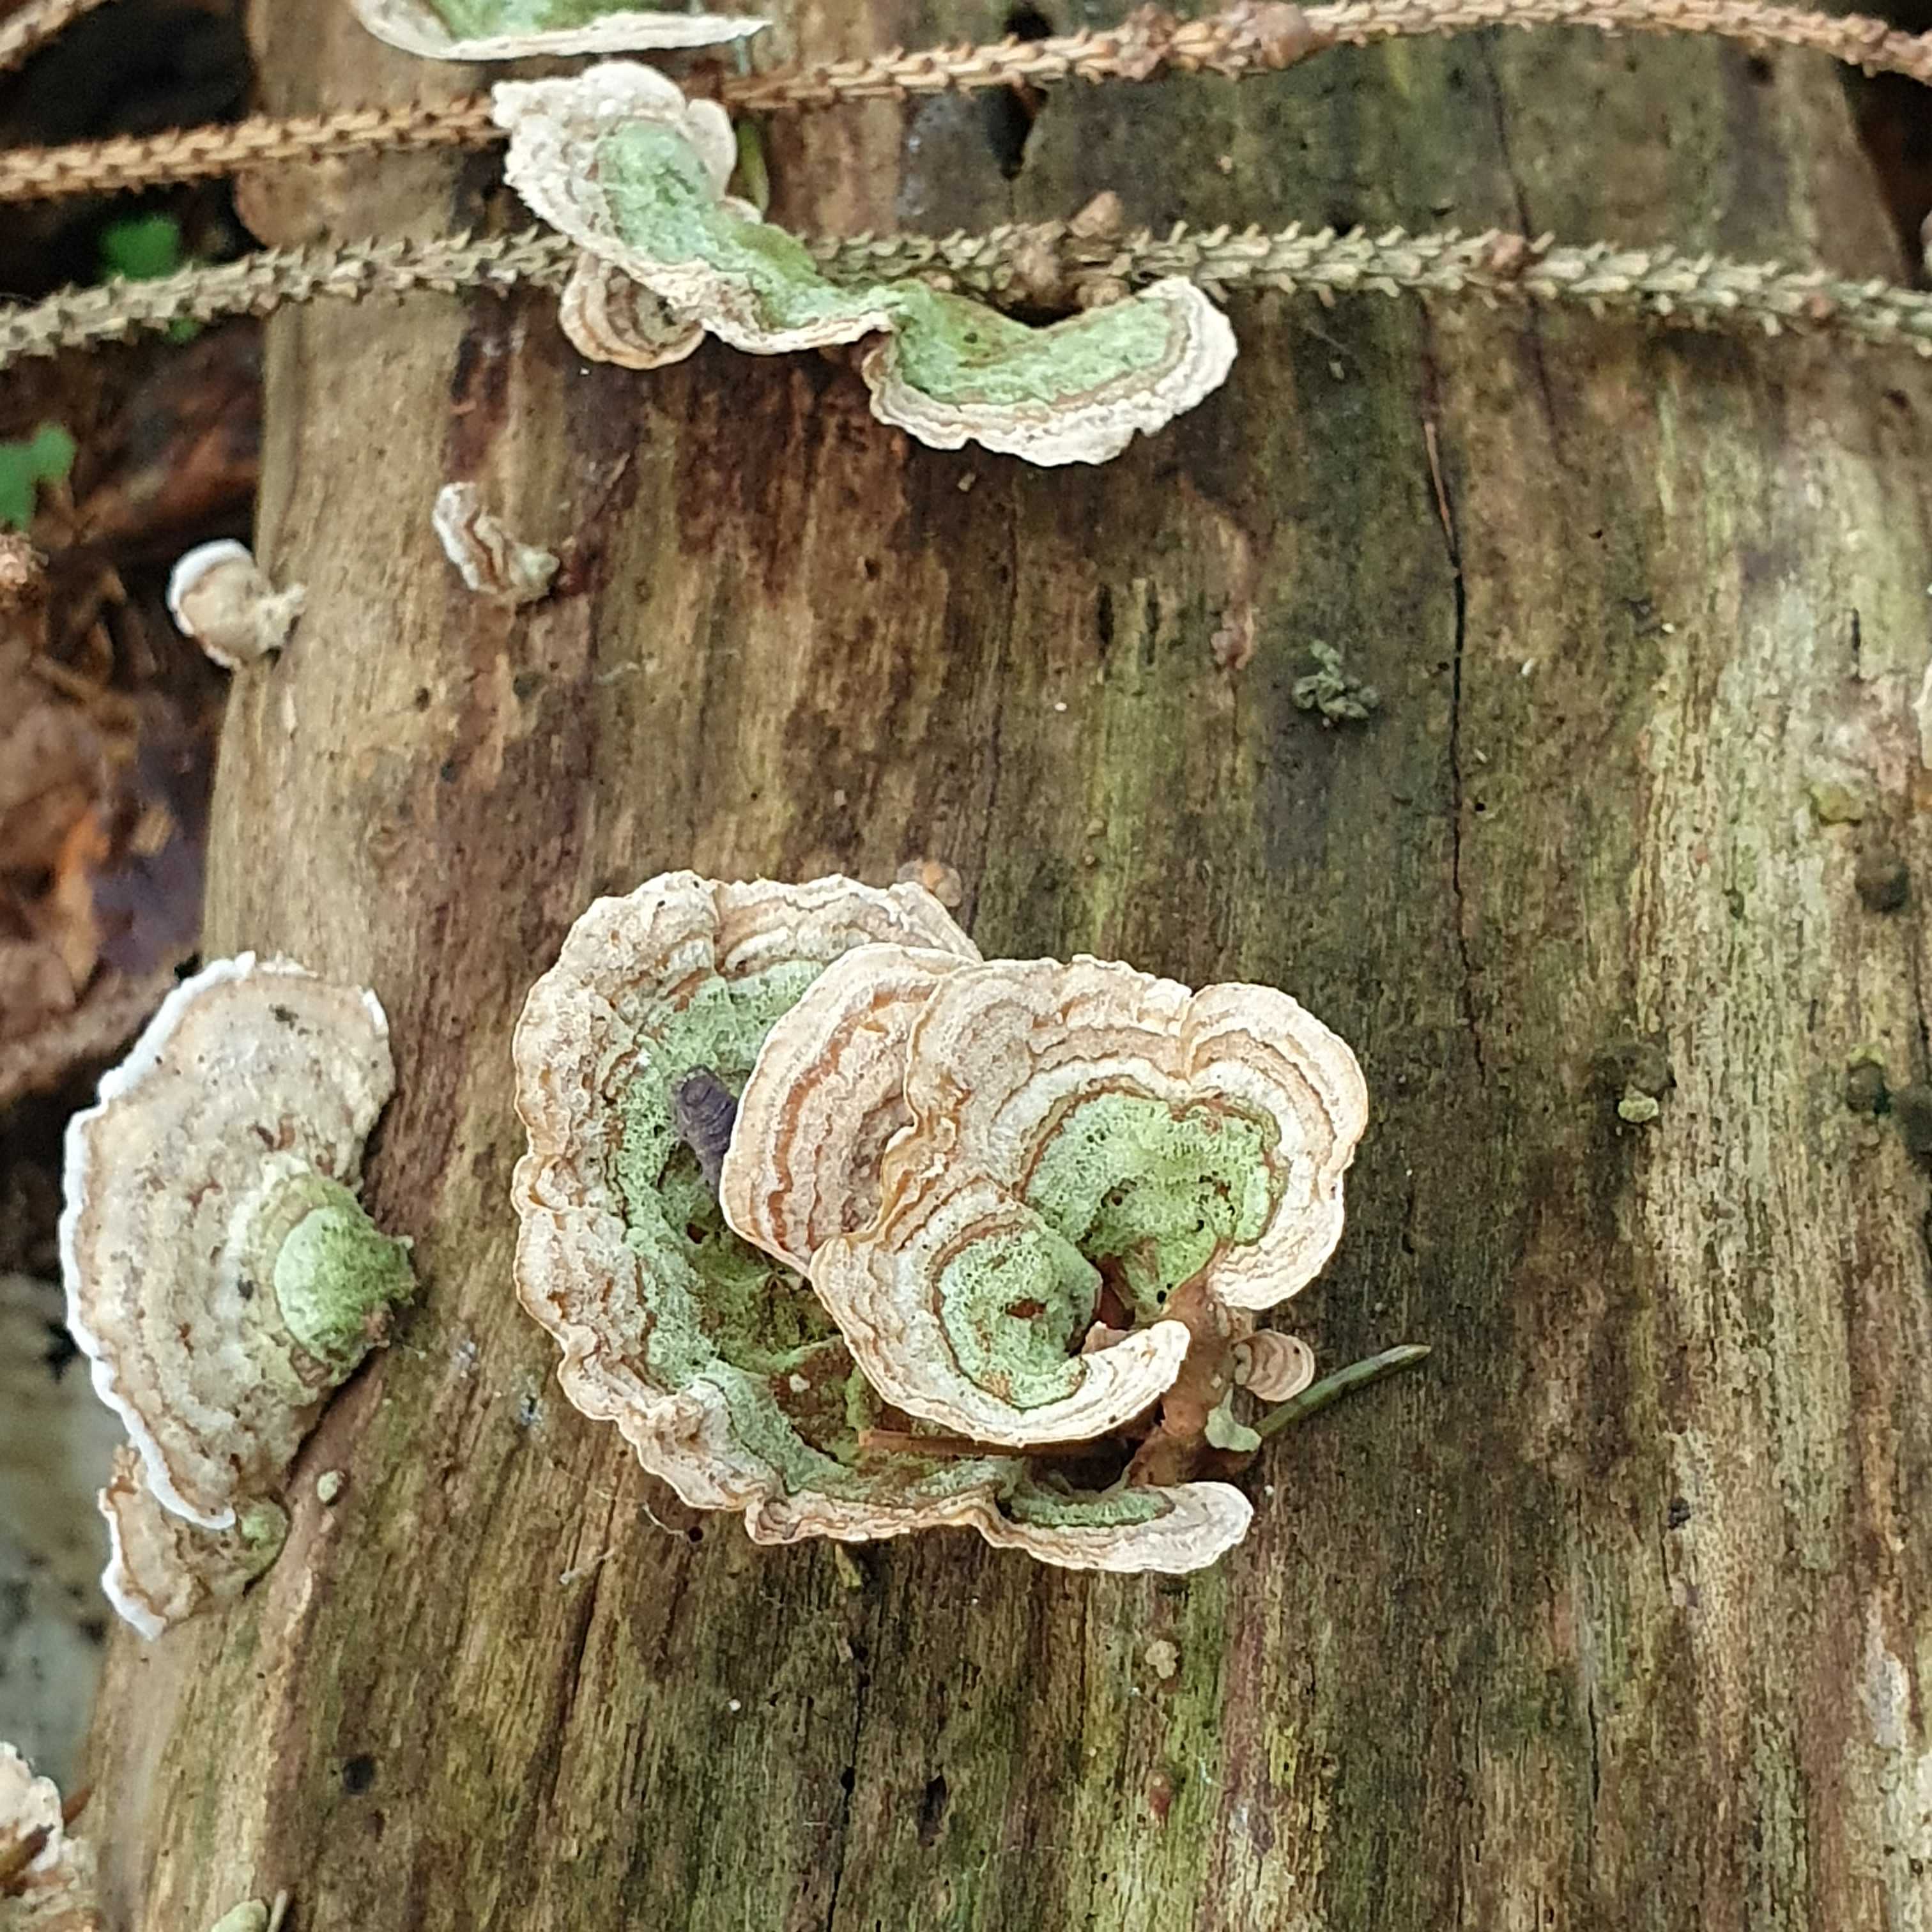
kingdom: Fungi
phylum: Basidiomycota
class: Agaricomycetes
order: Russulales
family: Stereaceae
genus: Stereum
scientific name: Stereum subtomentosum
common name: smuk lædersvamp
